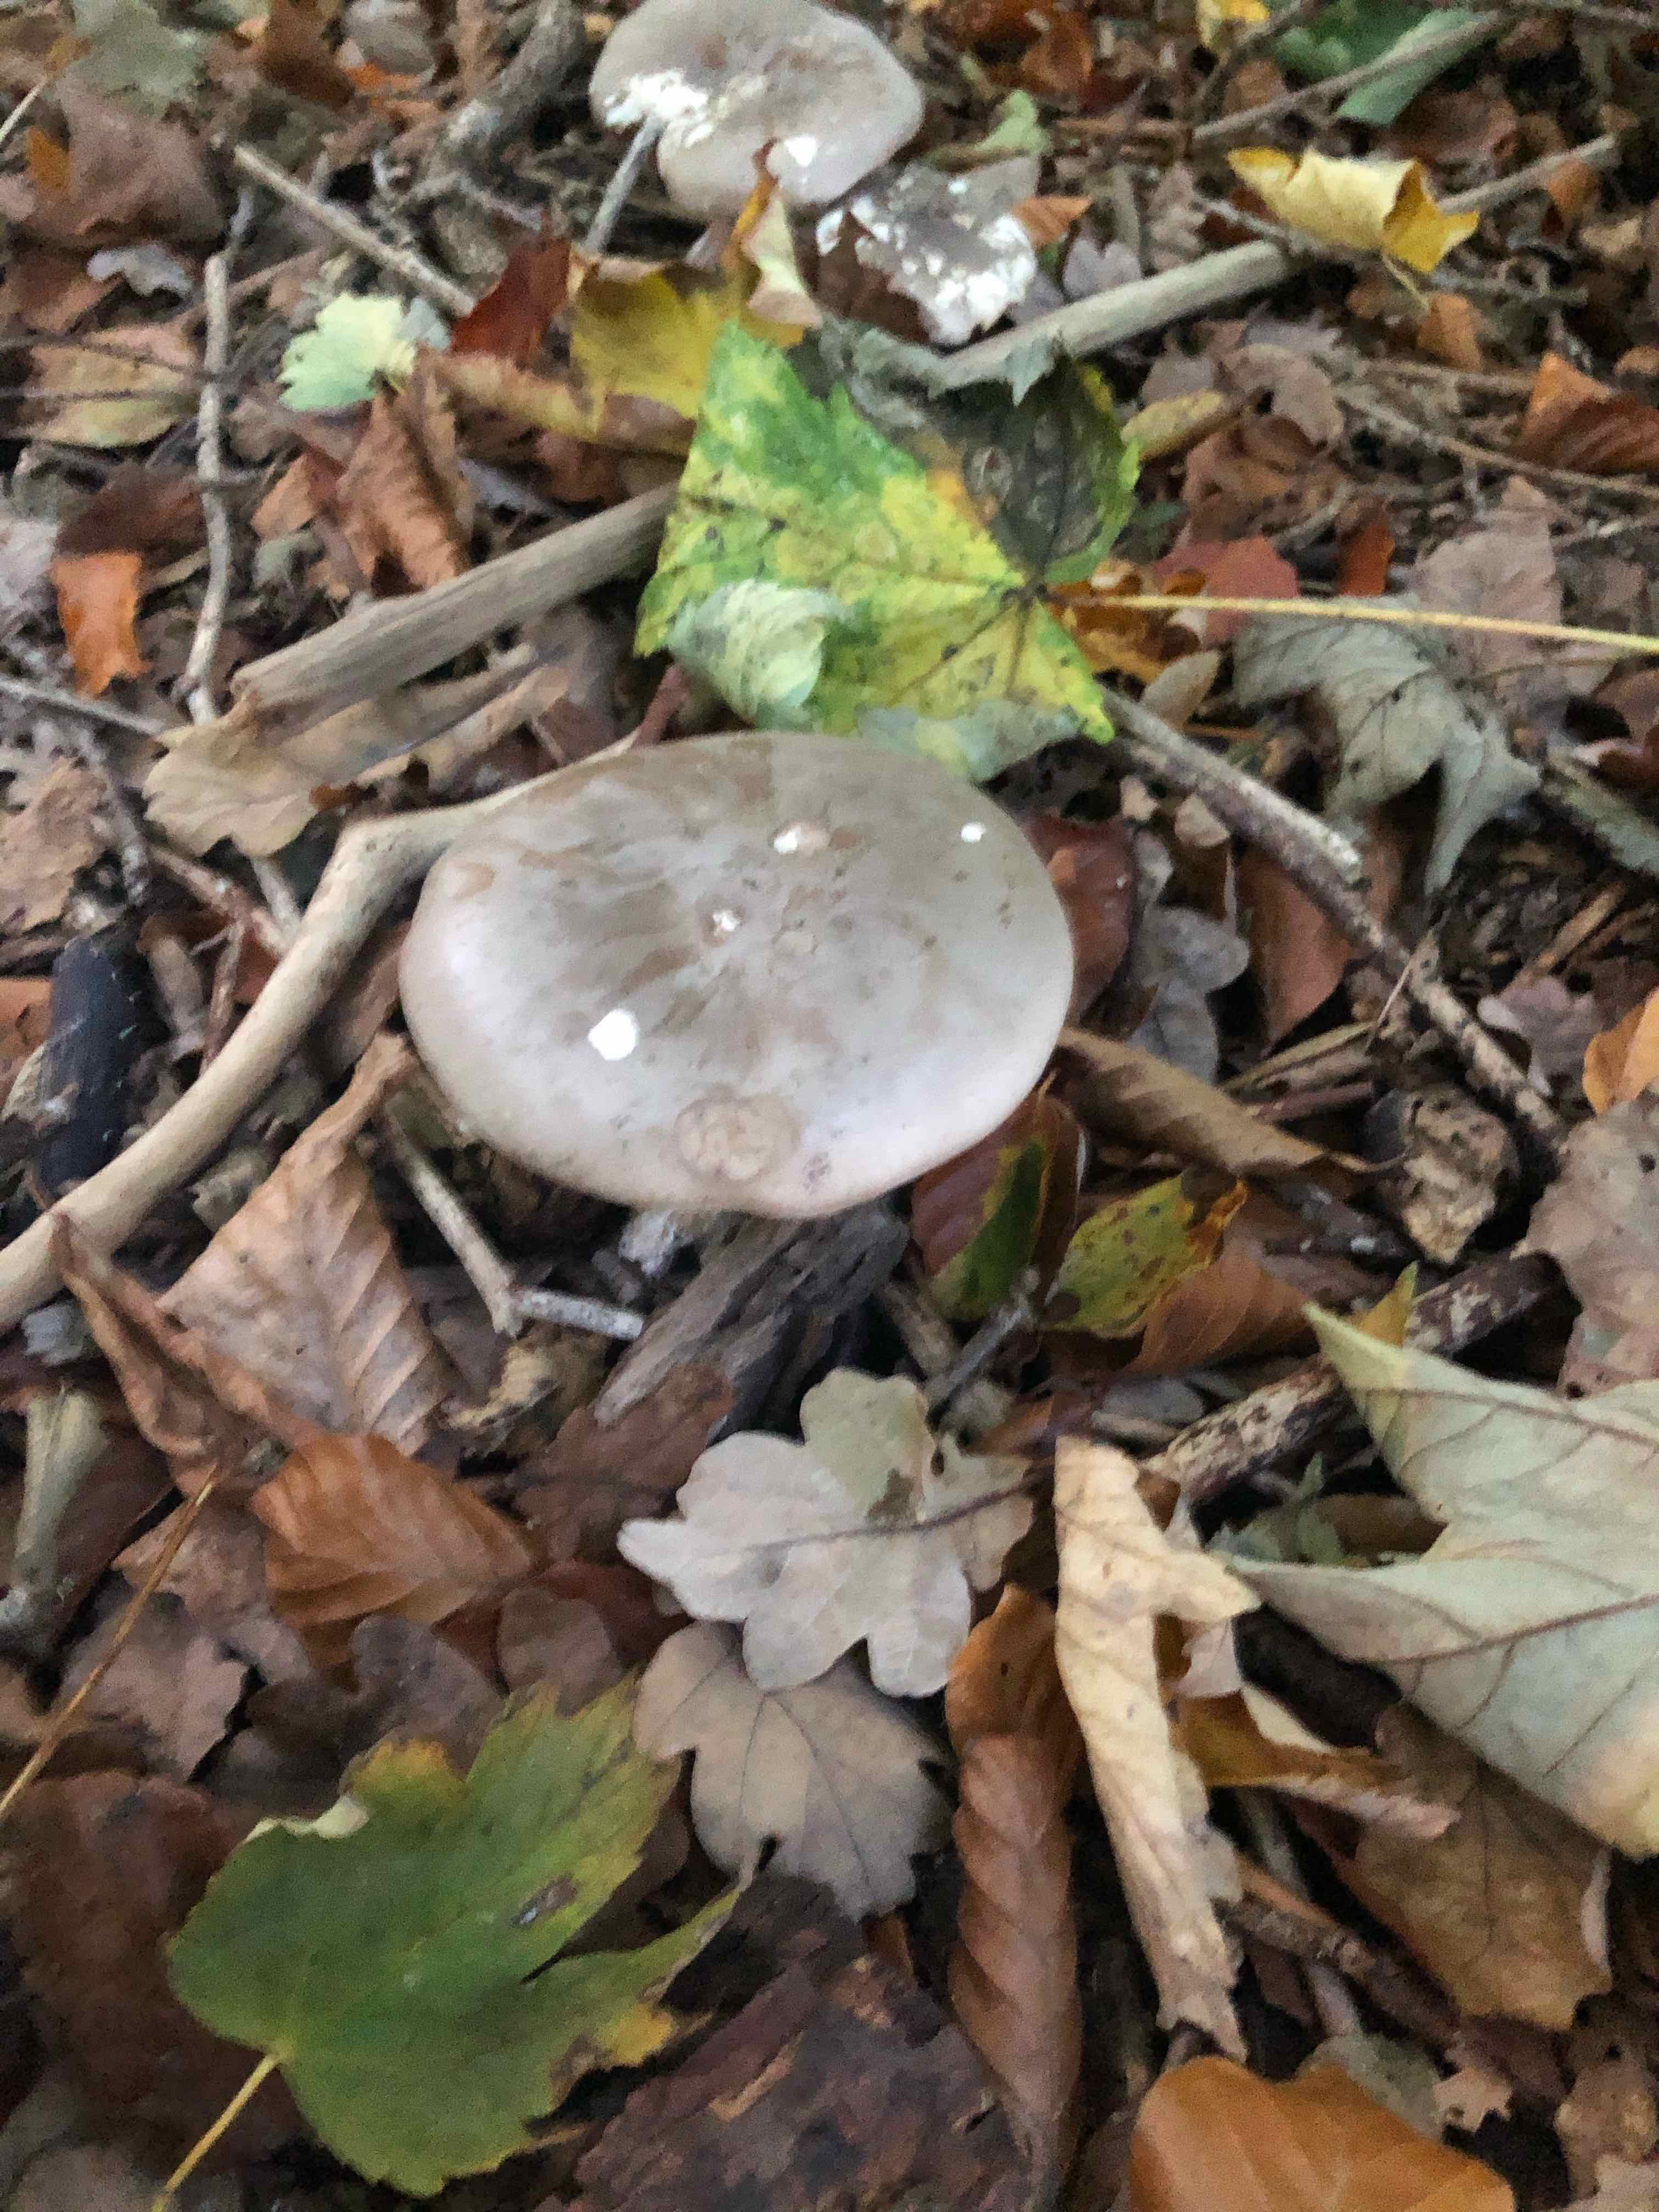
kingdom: Fungi
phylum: Basidiomycota
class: Agaricomycetes
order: Agaricales
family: Tricholomataceae
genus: Clitocybe
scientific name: Clitocybe nebularis
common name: tåge-tragthat
